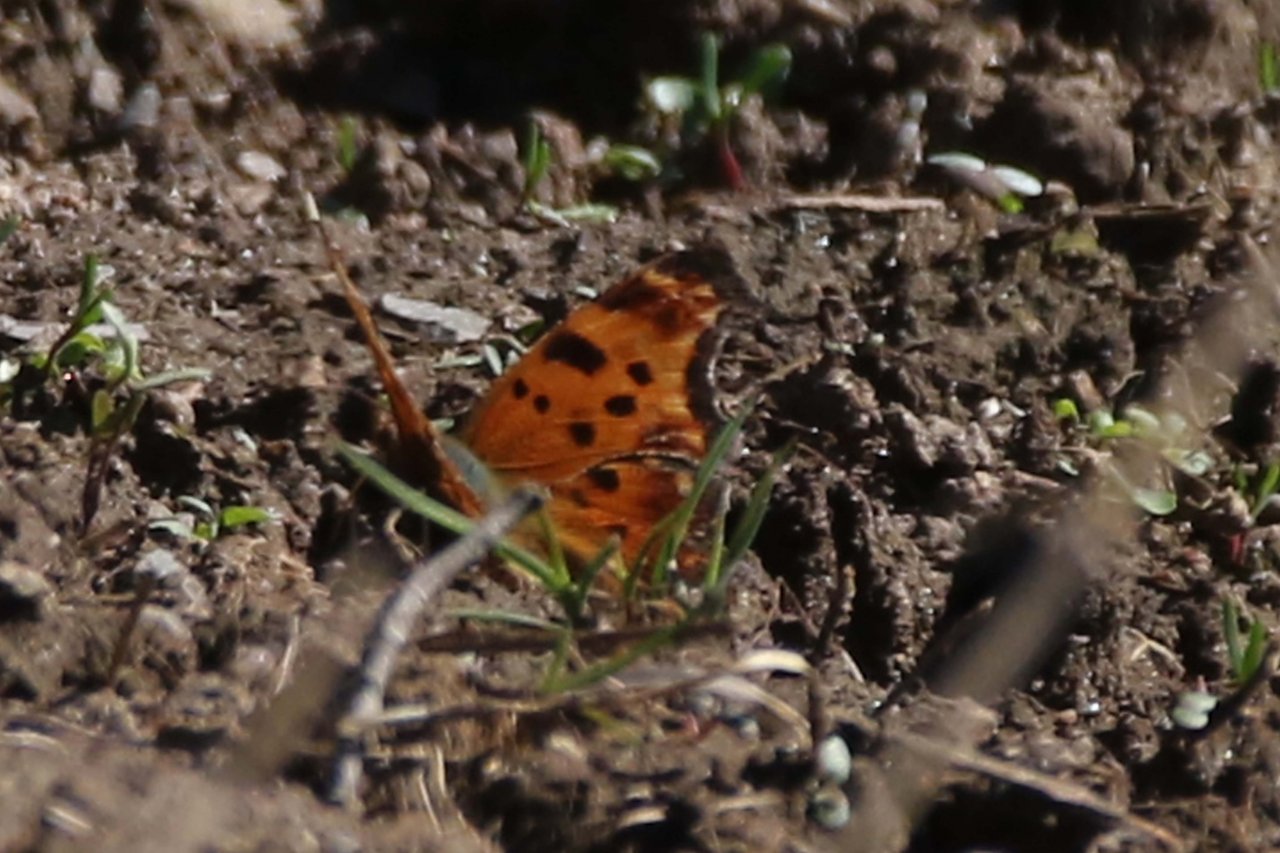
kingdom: Animalia
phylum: Arthropoda
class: Insecta
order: Lepidoptera
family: Nymphalidae
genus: Polygonia
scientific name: Polygonia comma
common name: Eastern Comma
